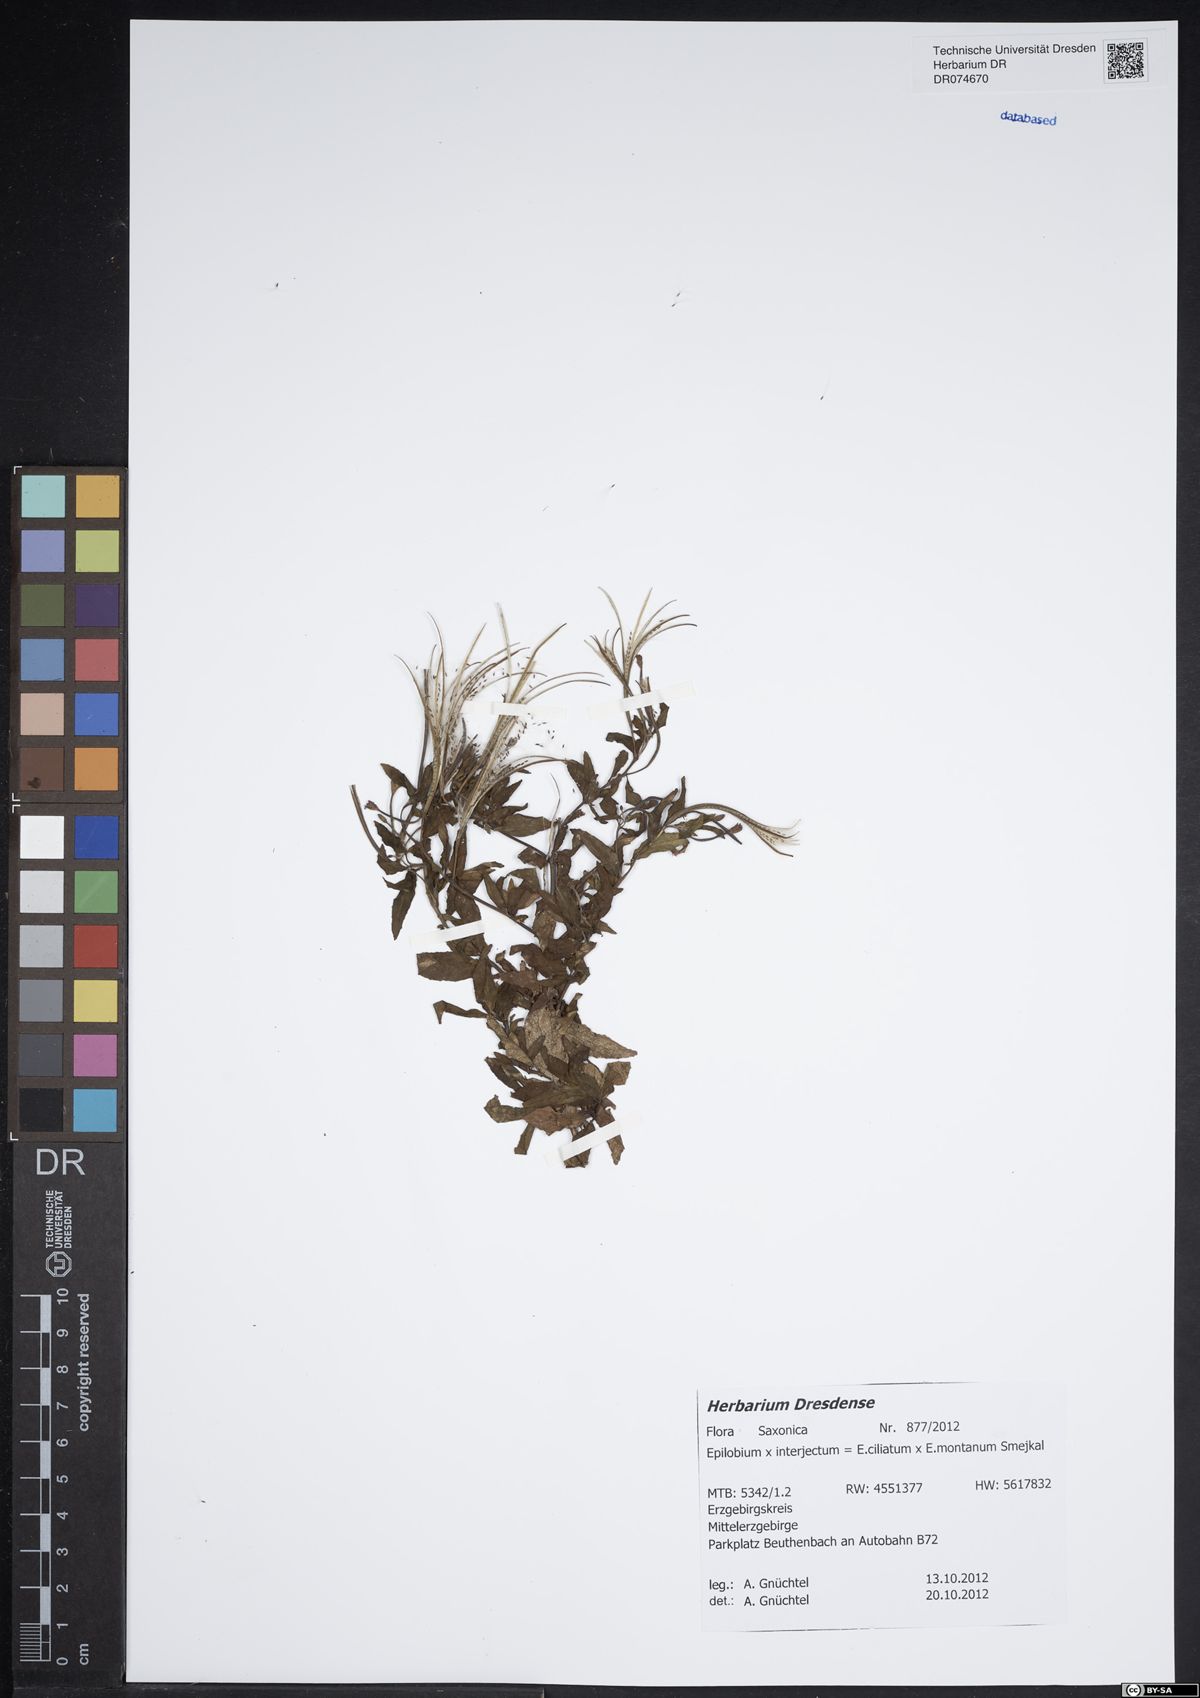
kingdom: Plantae
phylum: Tracheophyta
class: Magnoliopsida
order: Myrtales
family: Onagraceae
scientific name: Onagraceae
